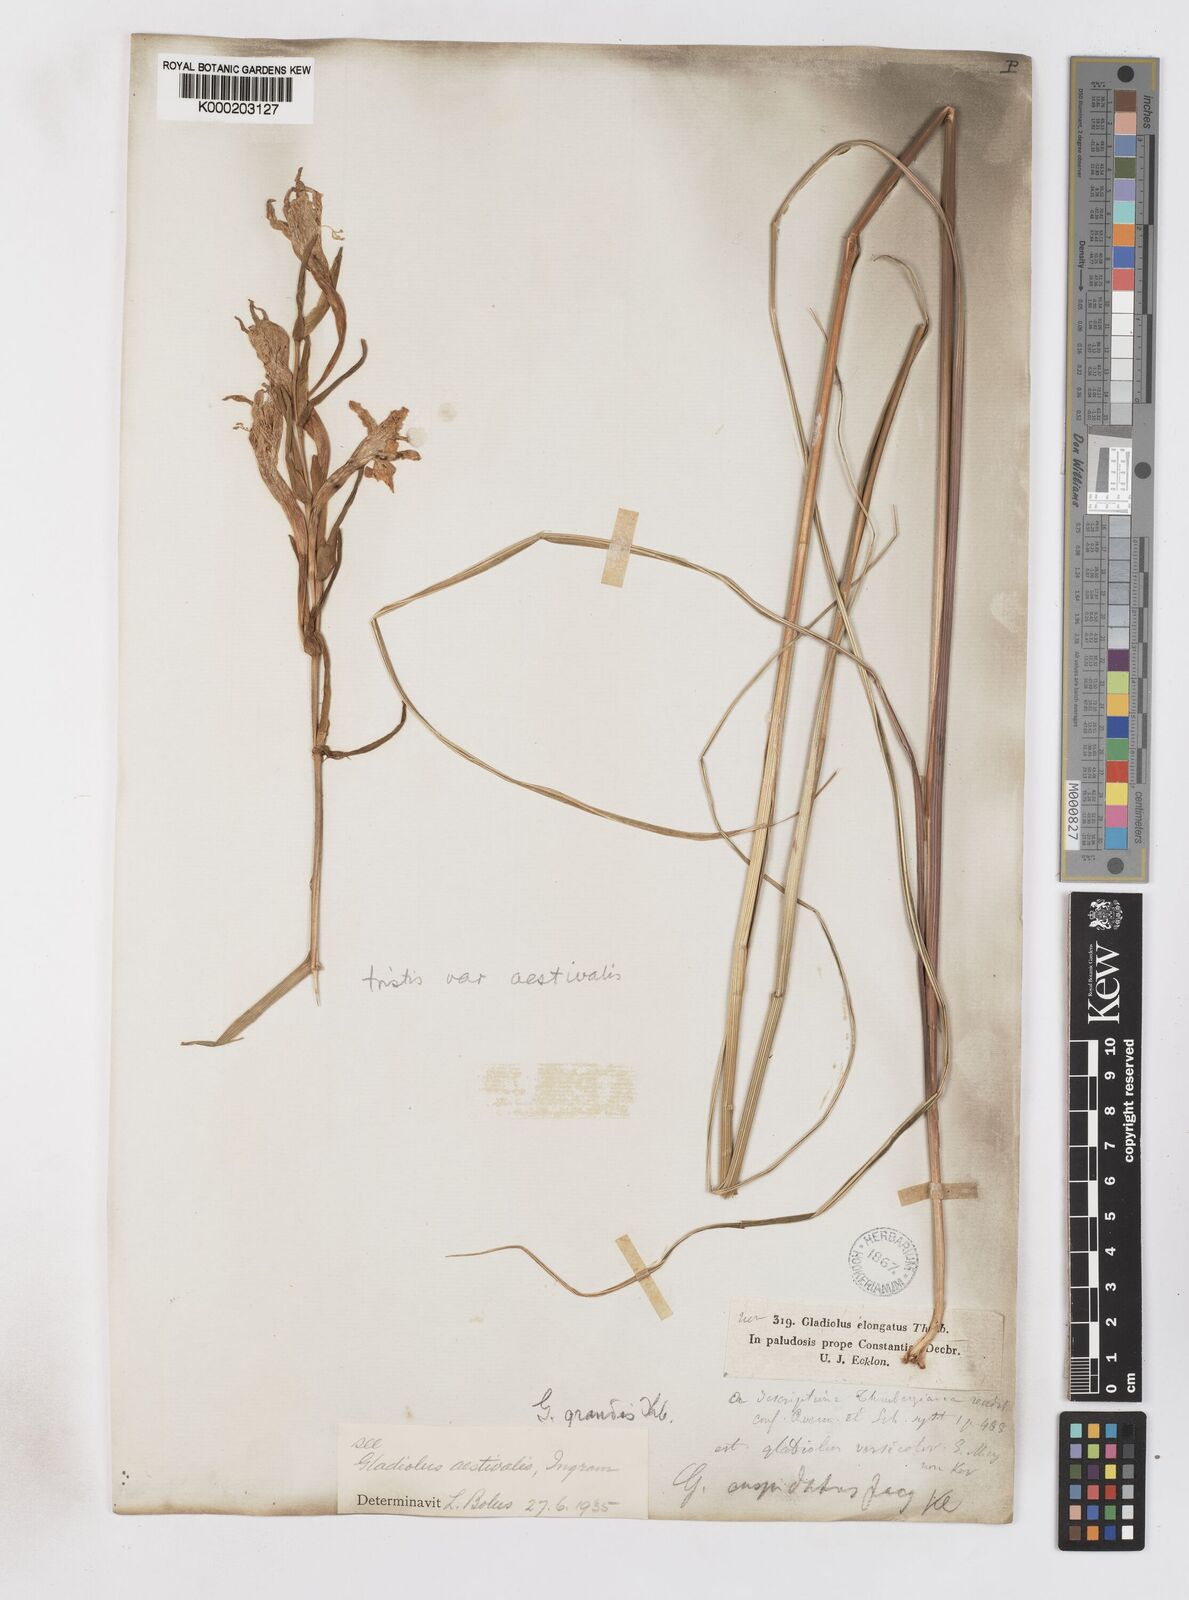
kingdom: Plantae
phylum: Tracheophyta
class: Liliopsida
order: Asparagales
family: Iridaceae
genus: Gladiolus
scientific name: Gladiolus tristis
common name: Ever-flowering gladiolus
